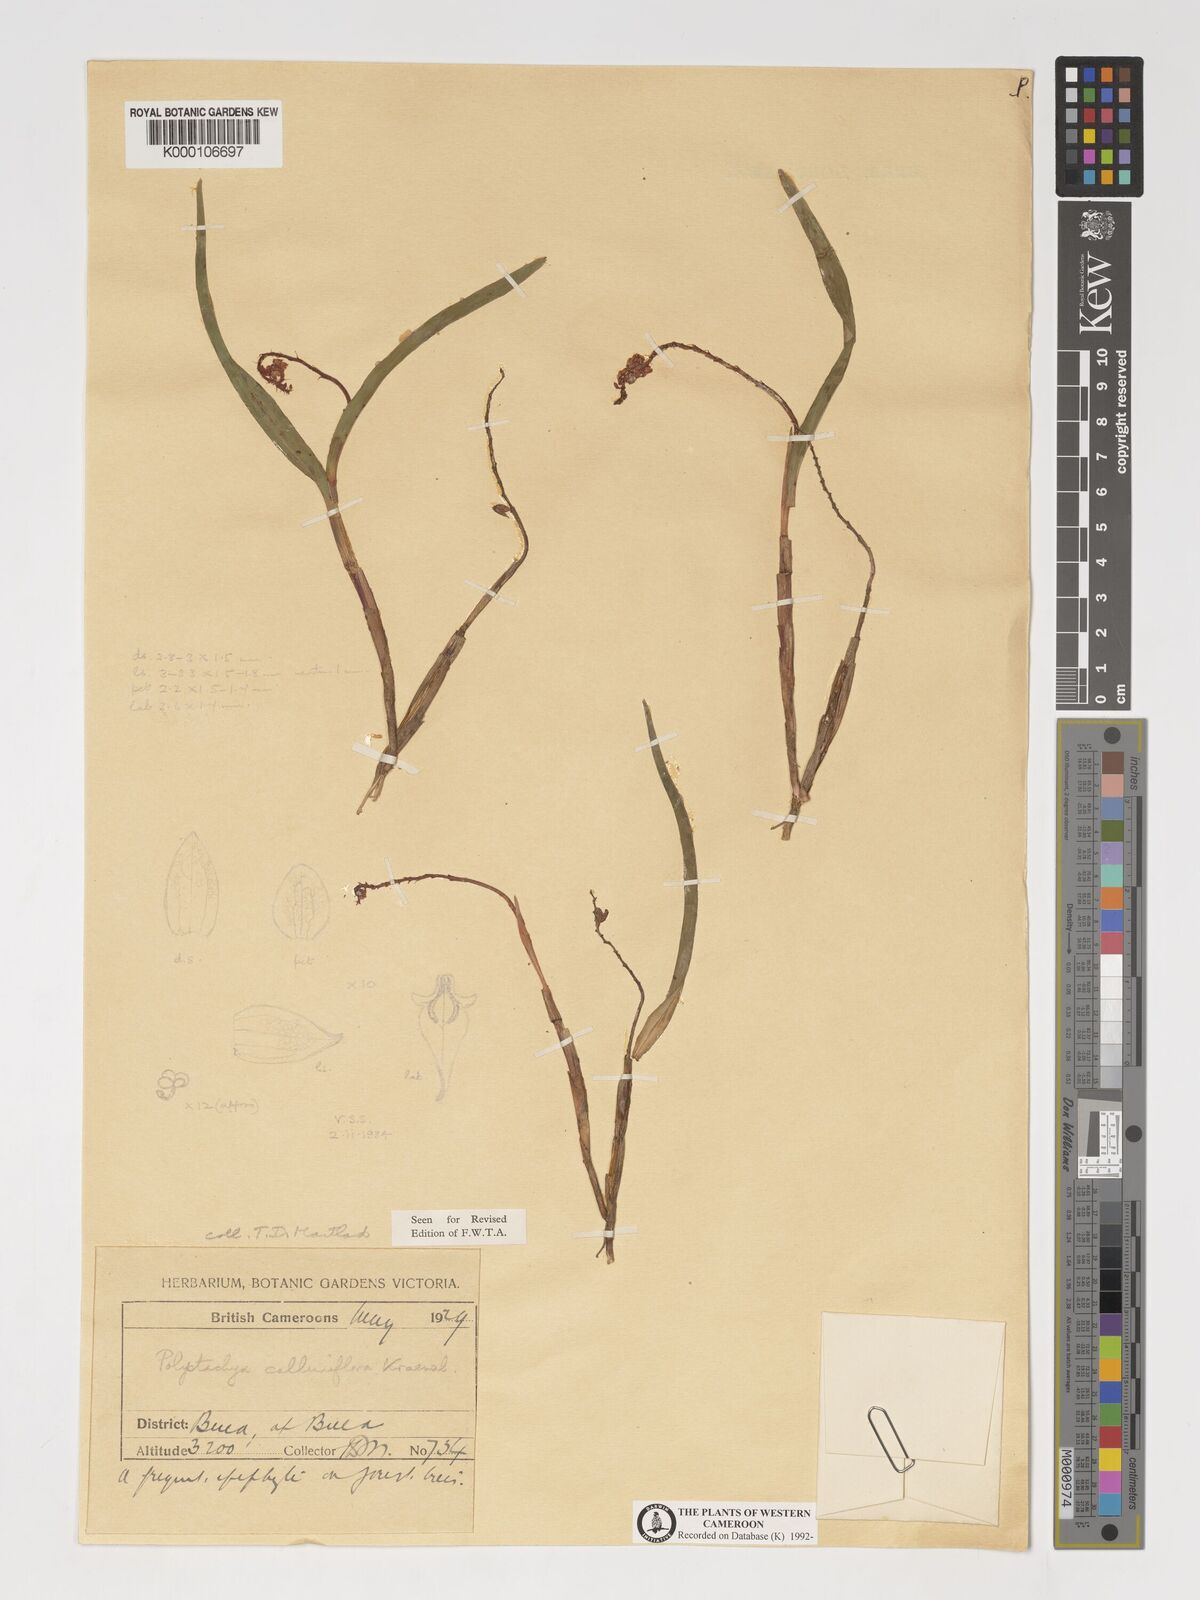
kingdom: Plantae
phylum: Tracheophyta
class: Liliopsida
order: Asparagales
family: Orchidaceae
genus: Polystachya
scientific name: Polystachya calluniflora
